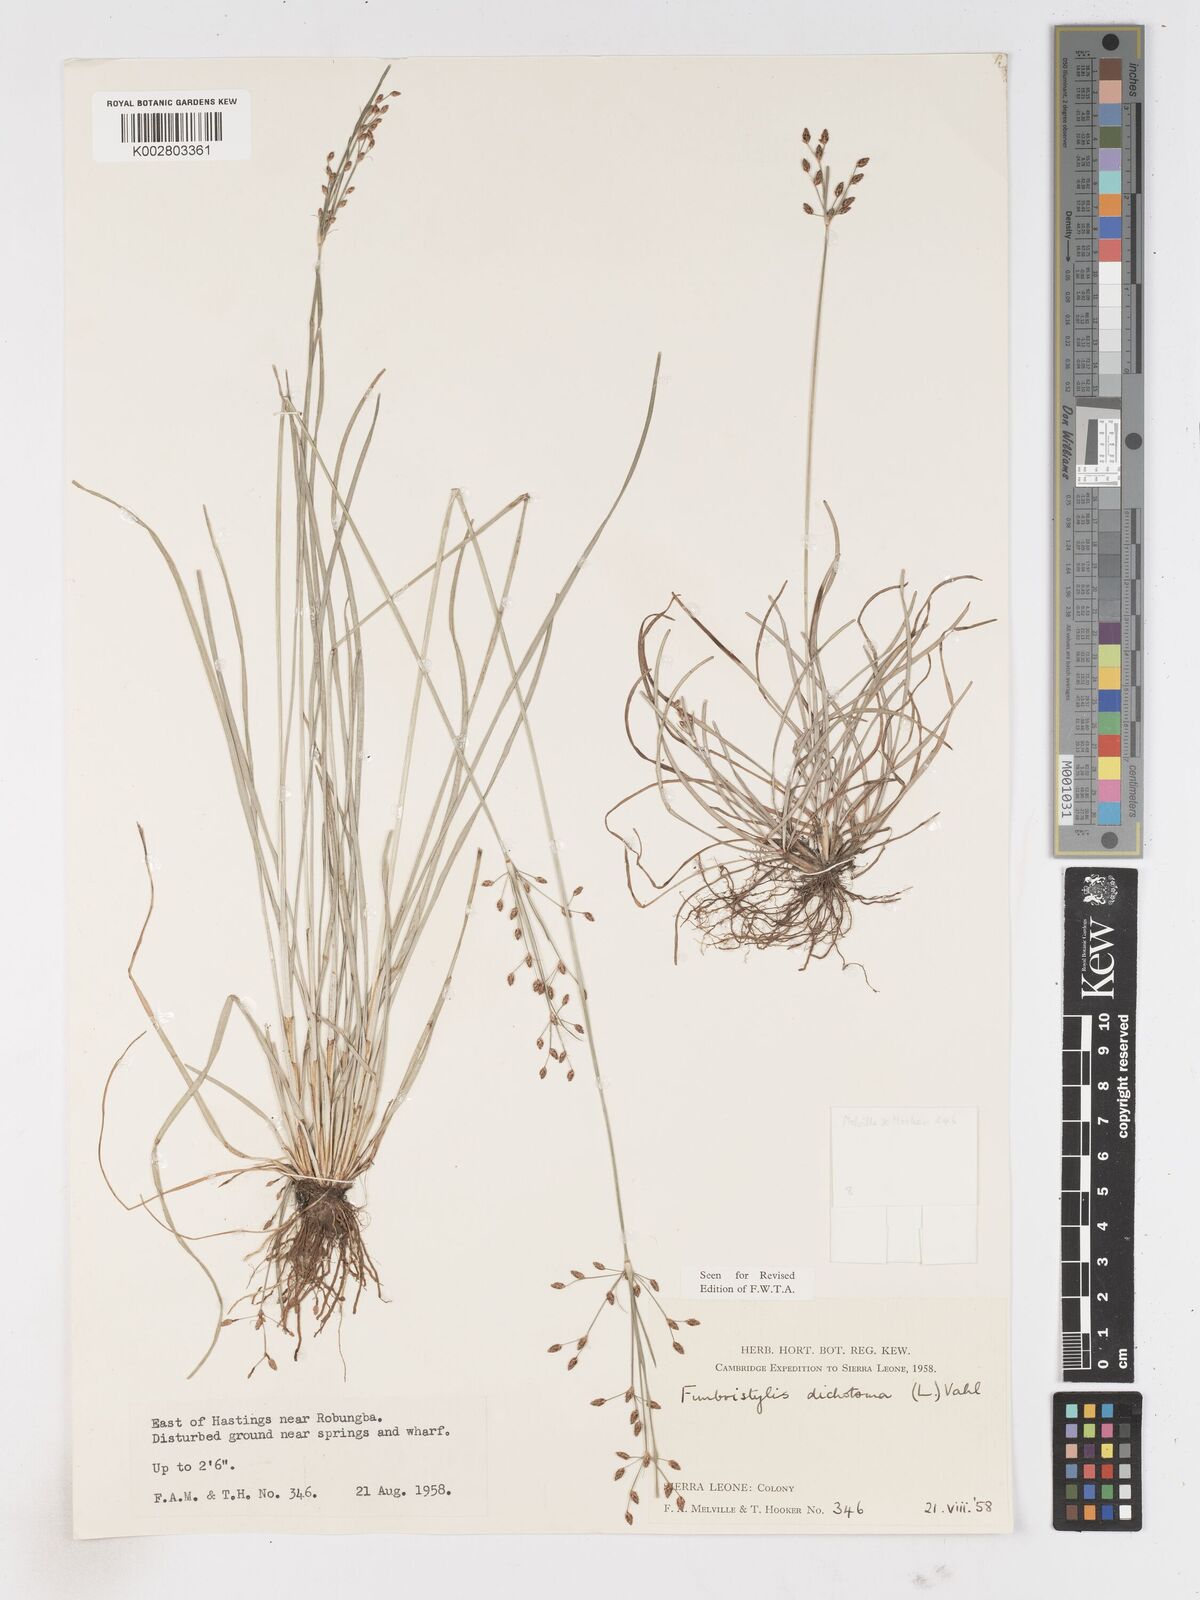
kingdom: Plantae
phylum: Tracheophyta
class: Liliopsida
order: Poales
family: Cyperaceae
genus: Fimbristylis
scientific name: Fimbristylis dichotoma
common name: Forked fimbry
